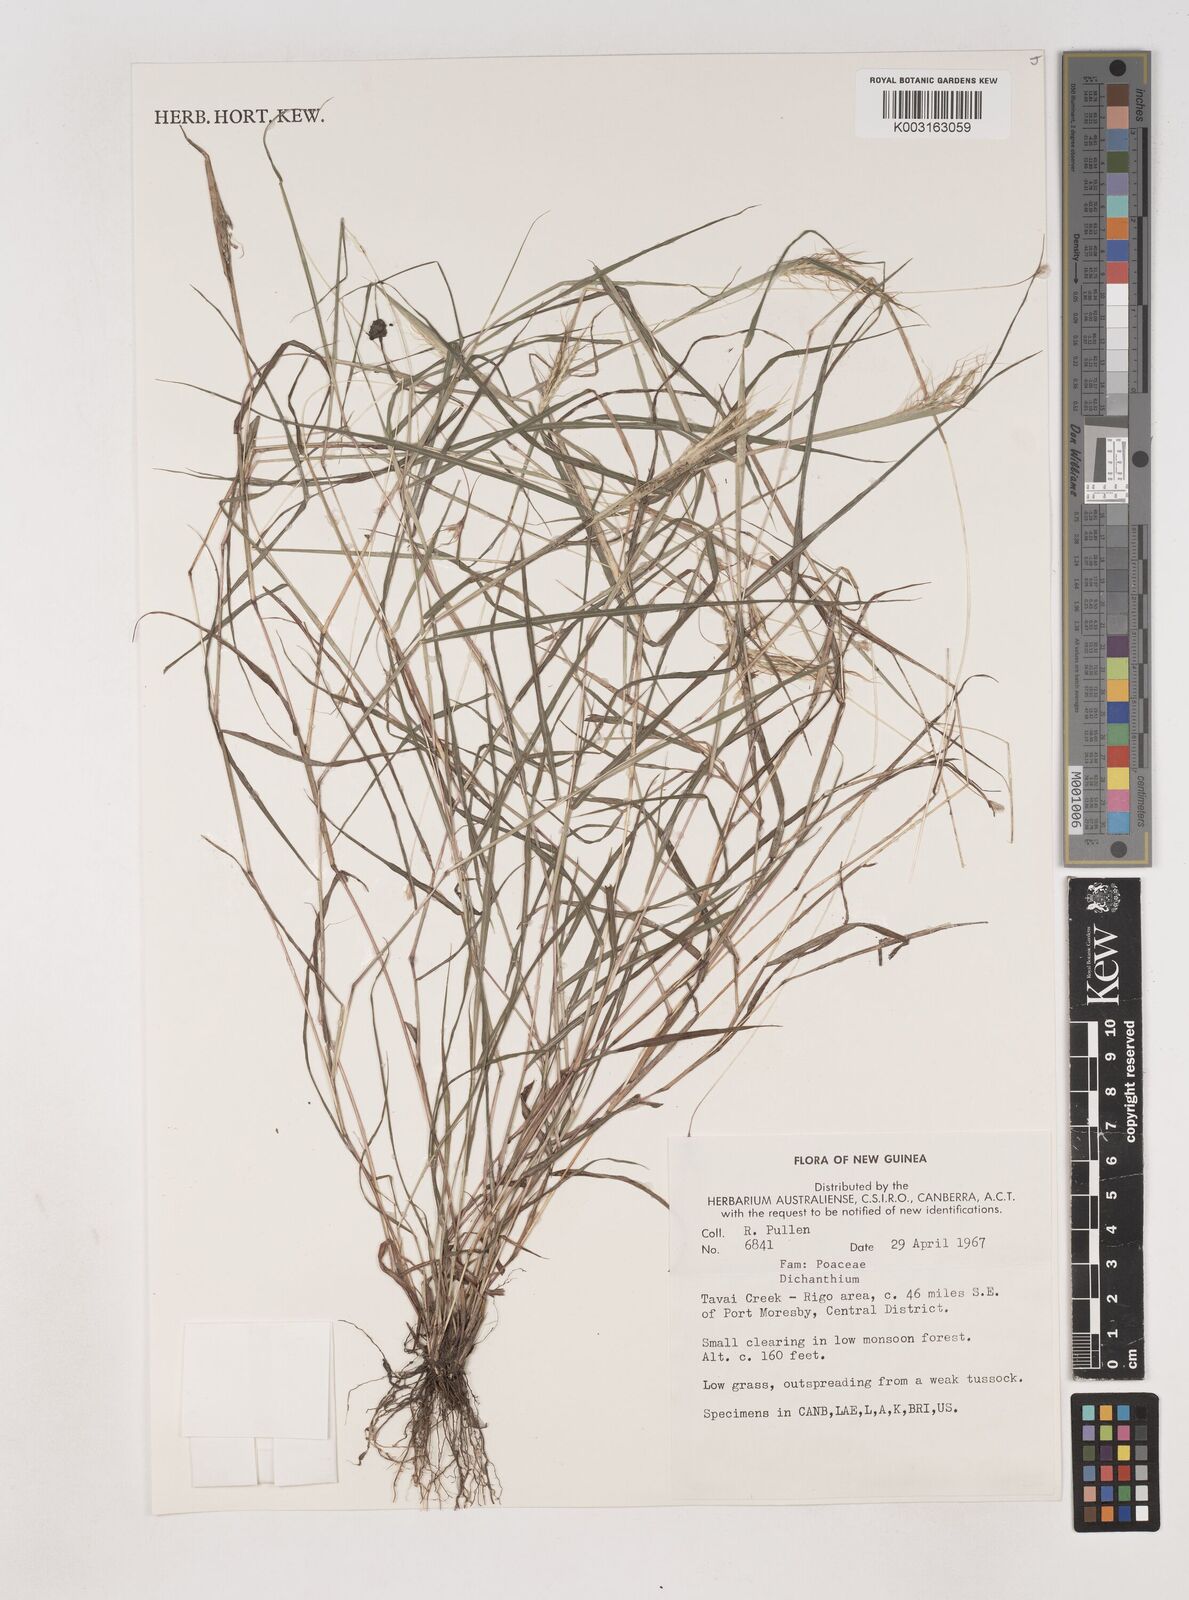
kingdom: Plantae
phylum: Tracheophyta
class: Liliopsida
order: Poales
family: Poaceae
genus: Dichanthium
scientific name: Dichanthium
